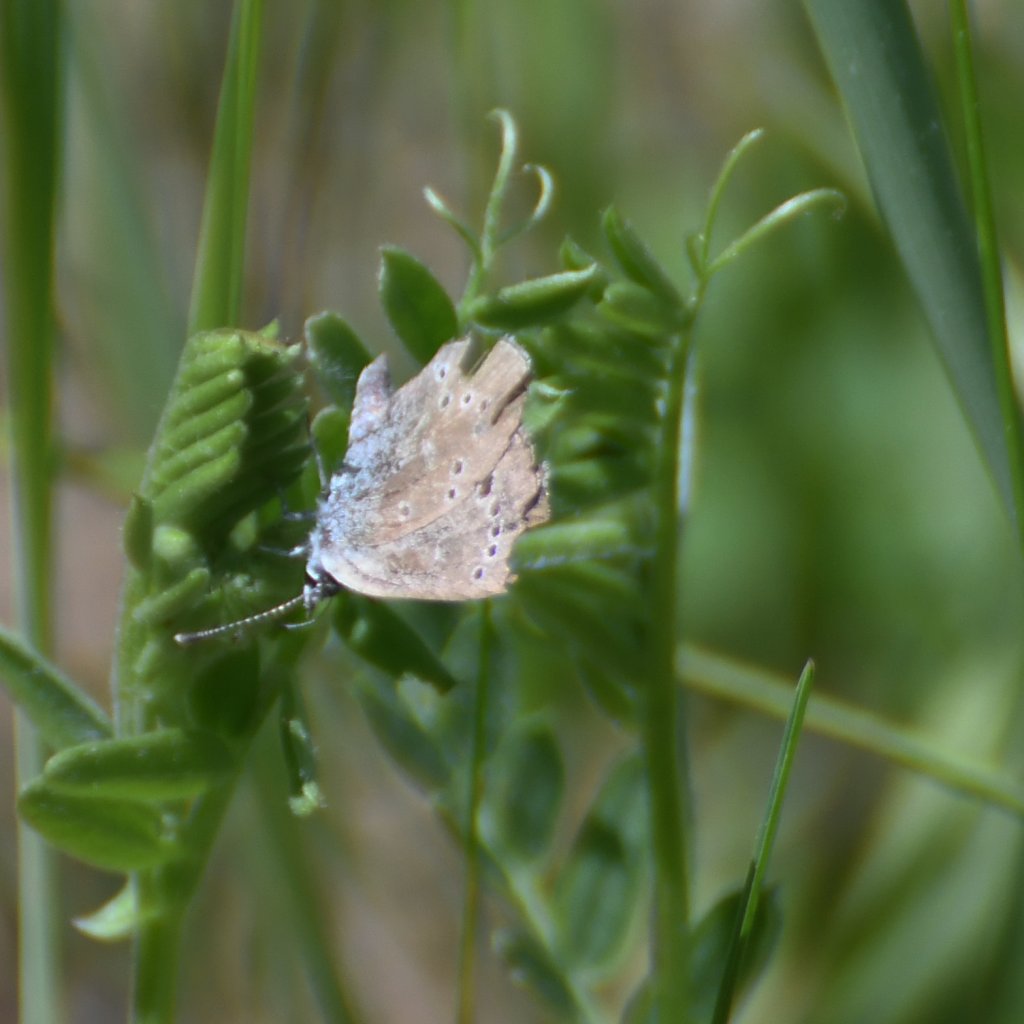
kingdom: Animalia
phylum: Arthropoda
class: Insecta
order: Lepidoptera
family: Lycaenidae
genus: Glaucopsyche
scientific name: Glaucopsyche lygdamus
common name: Silvery Blue
